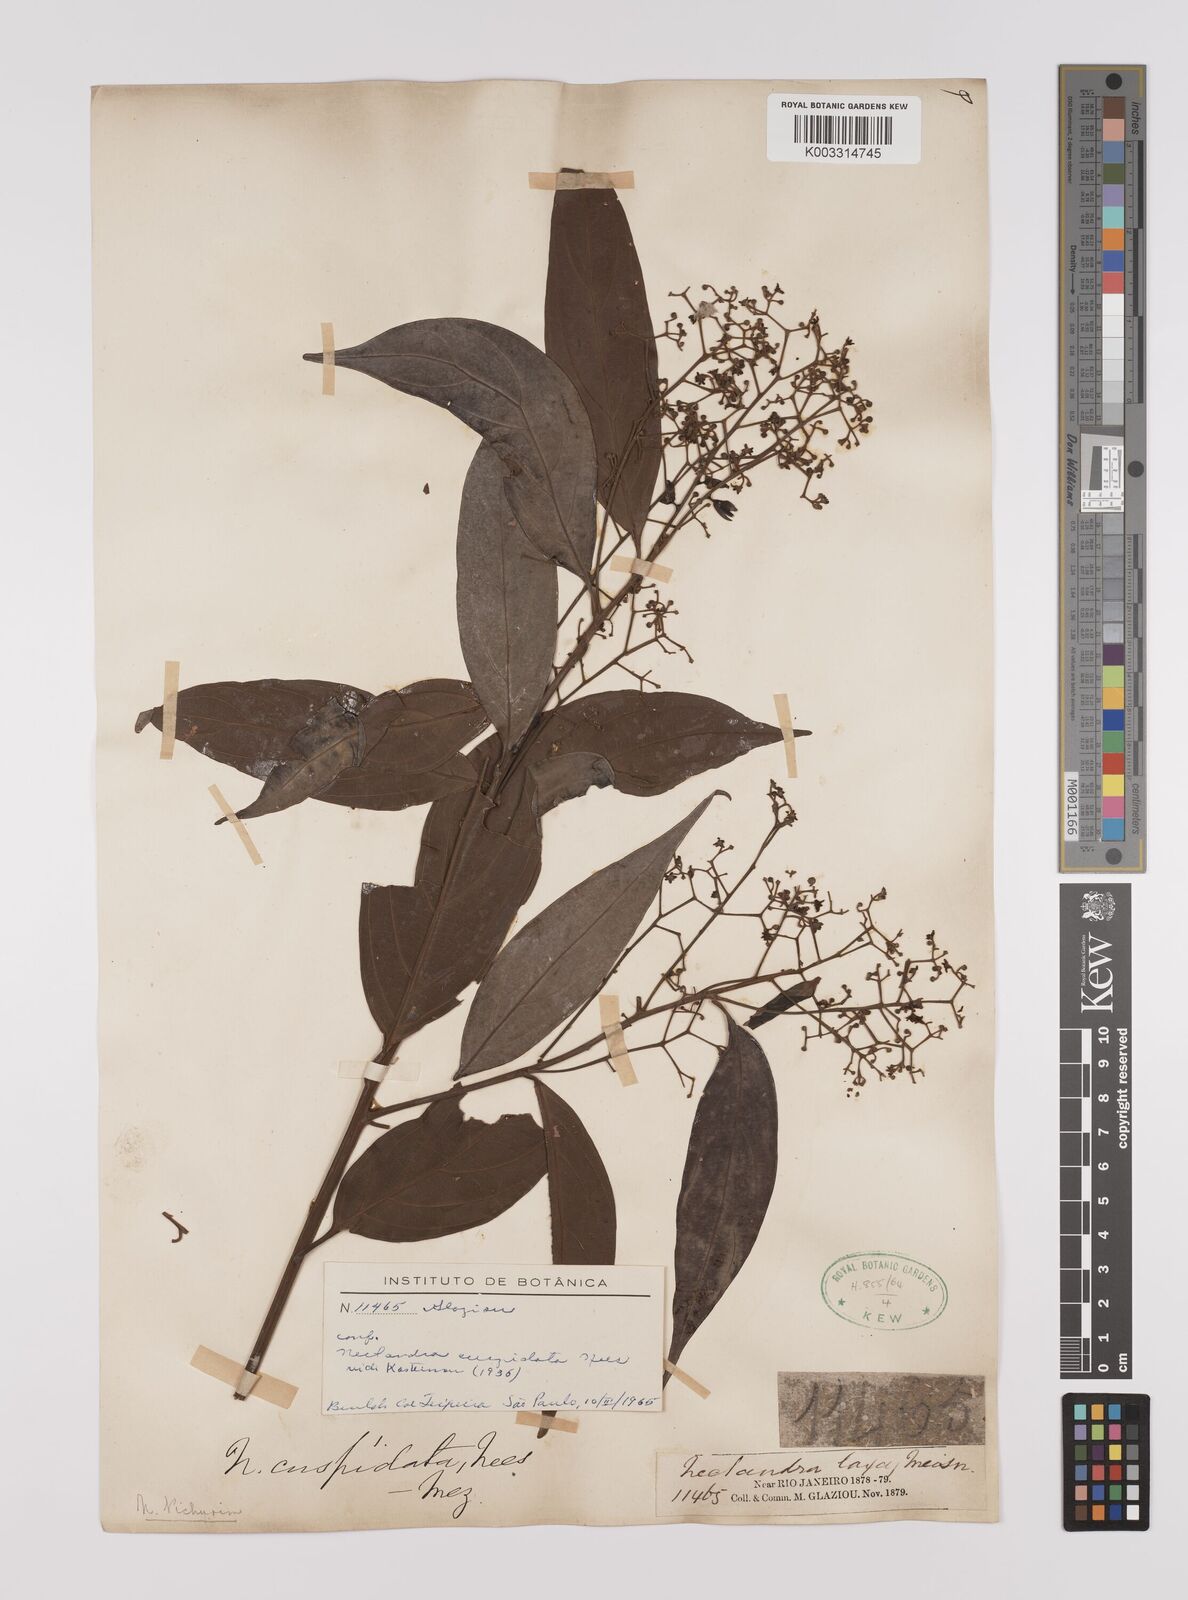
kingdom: Plantae
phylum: Tracheophyta
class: Magnoliopsida
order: Laurales
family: Lauraceae
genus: Nectandra
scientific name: Nectandra cuspidata
